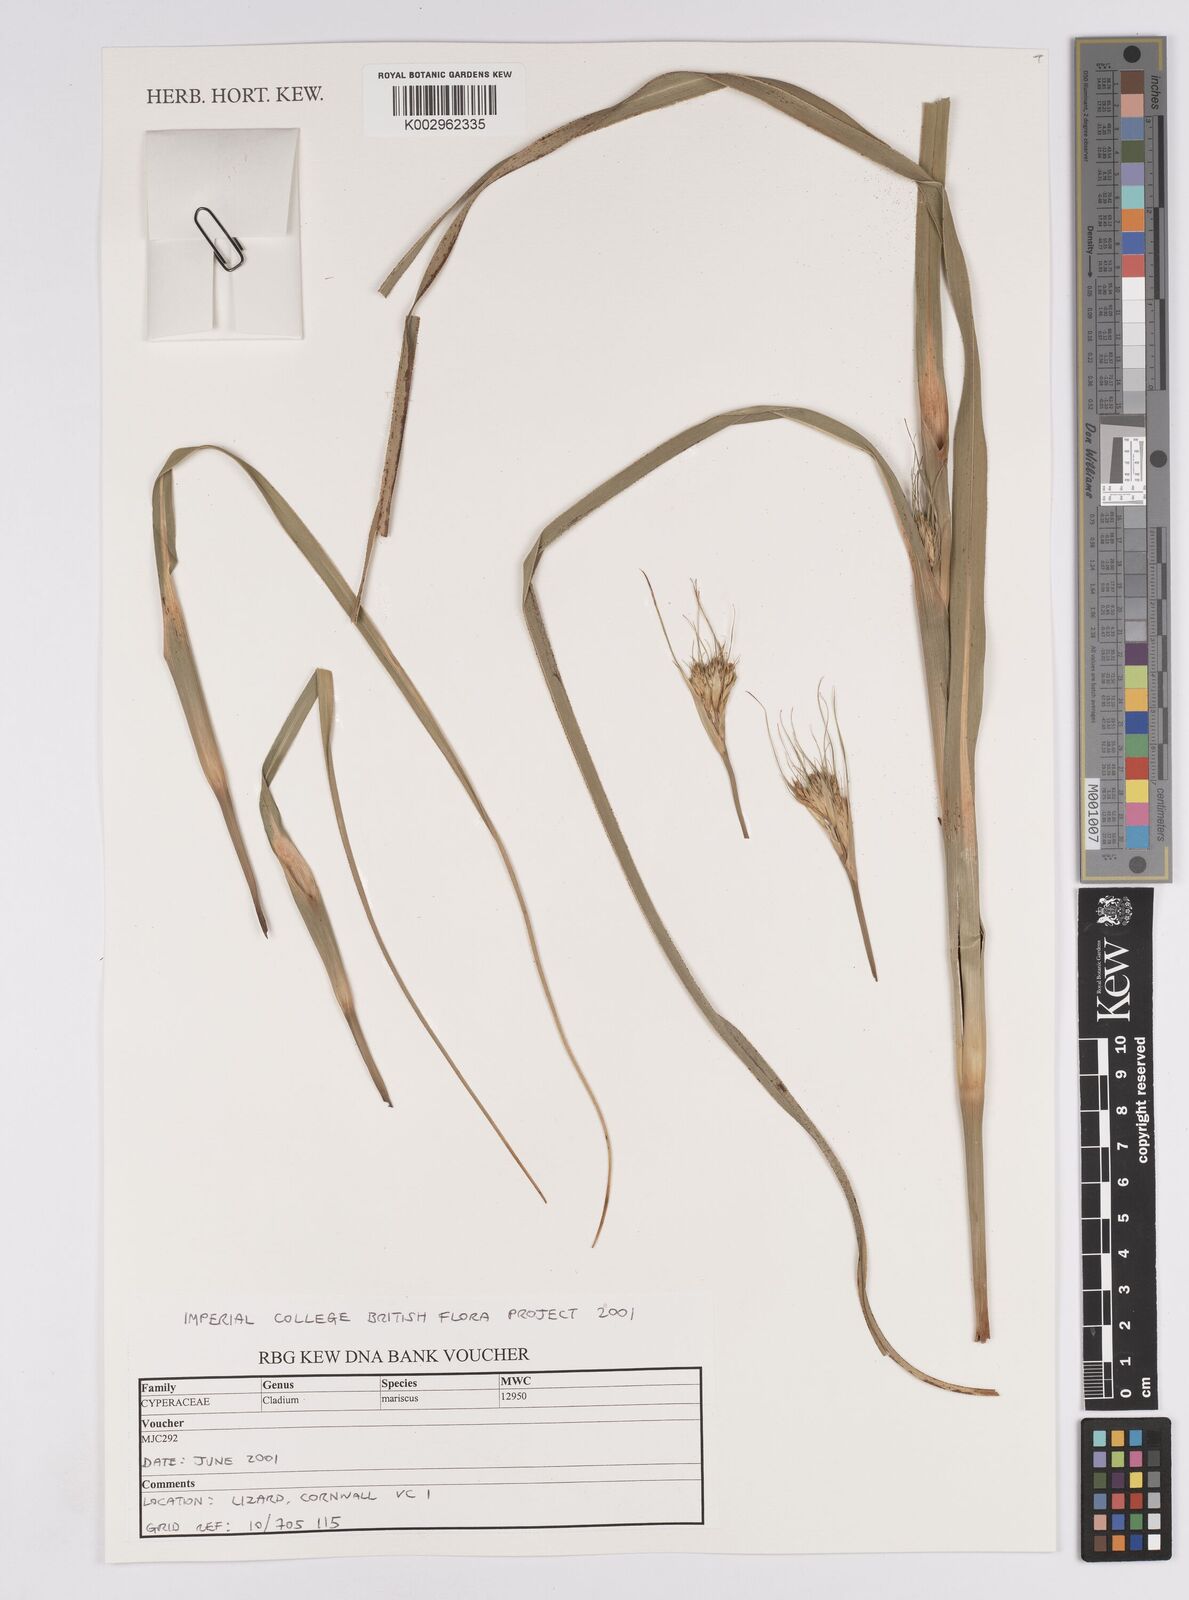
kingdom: Plantae
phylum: Tracheophyta
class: Liliopsida
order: Poales
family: Cyperaceae
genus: Cladium
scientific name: Cladium mariscus
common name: Great fen-sedge
